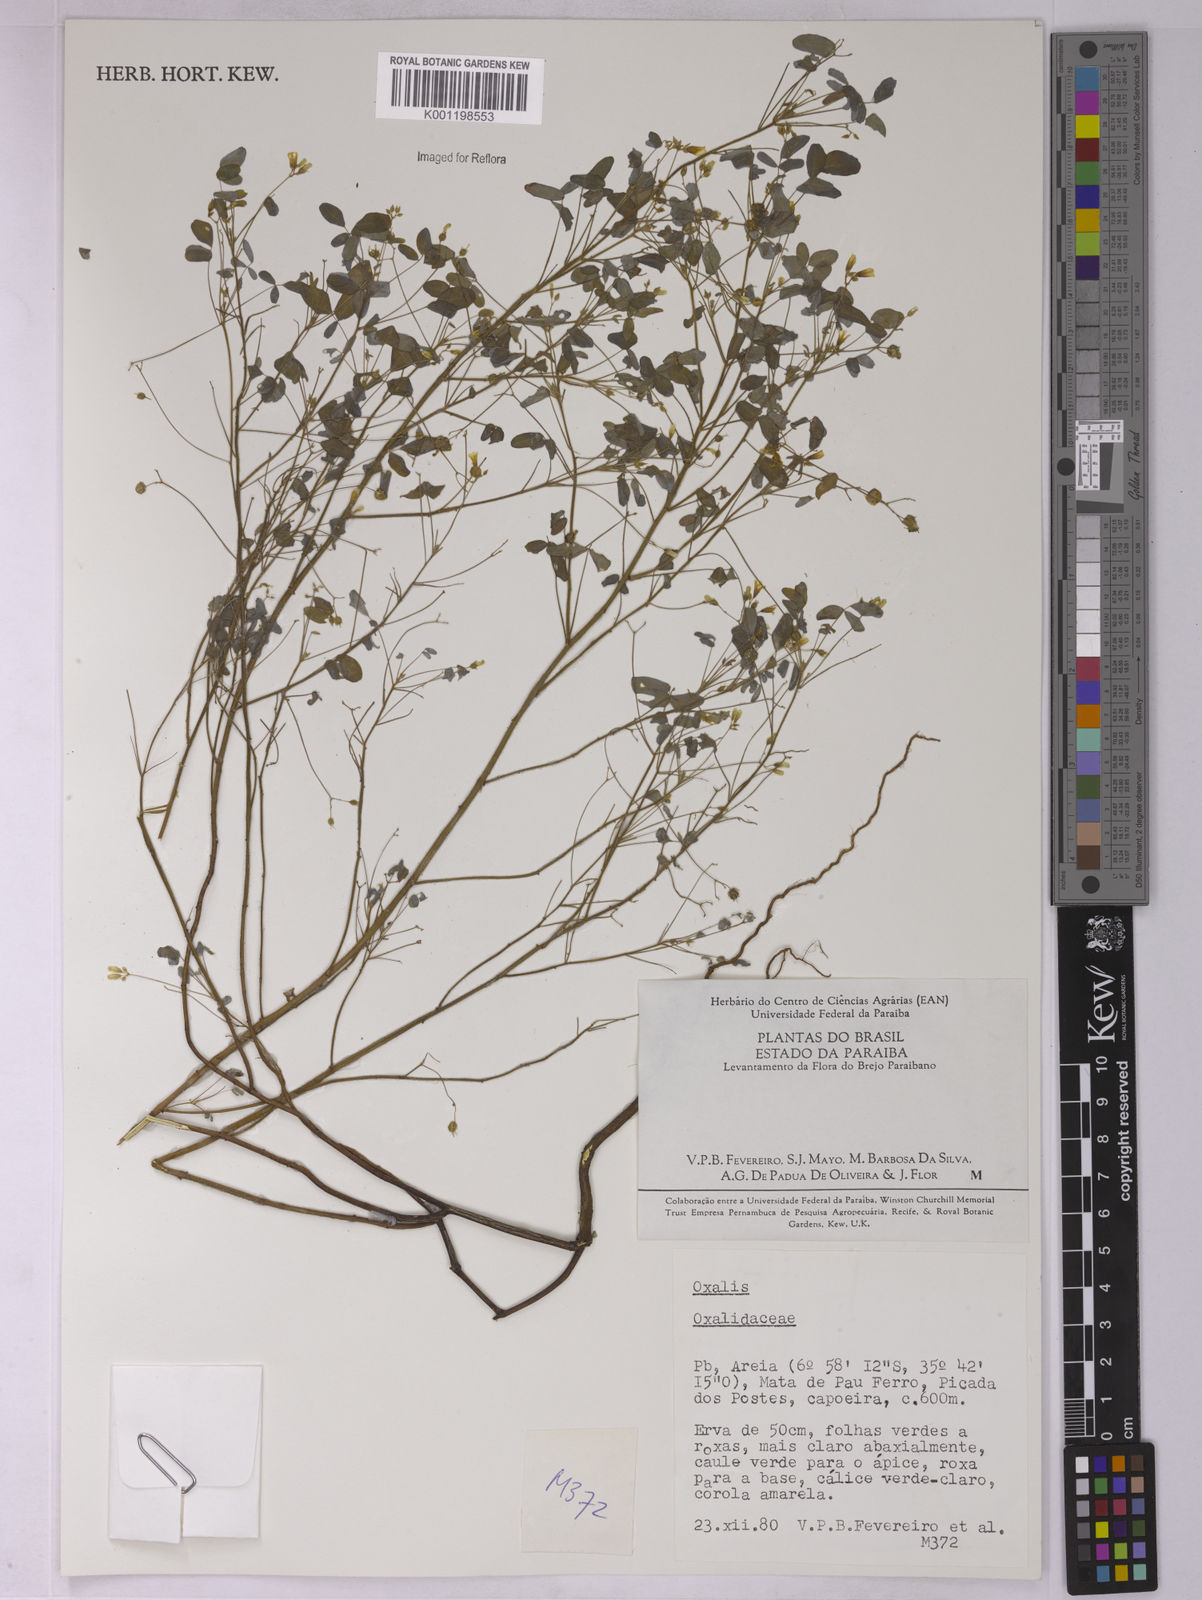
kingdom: Plantae
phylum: Tracheophyta
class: Magnoliopsida
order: Oxalidales
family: Oxalidaceae
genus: Oxalis
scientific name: Oxalis
